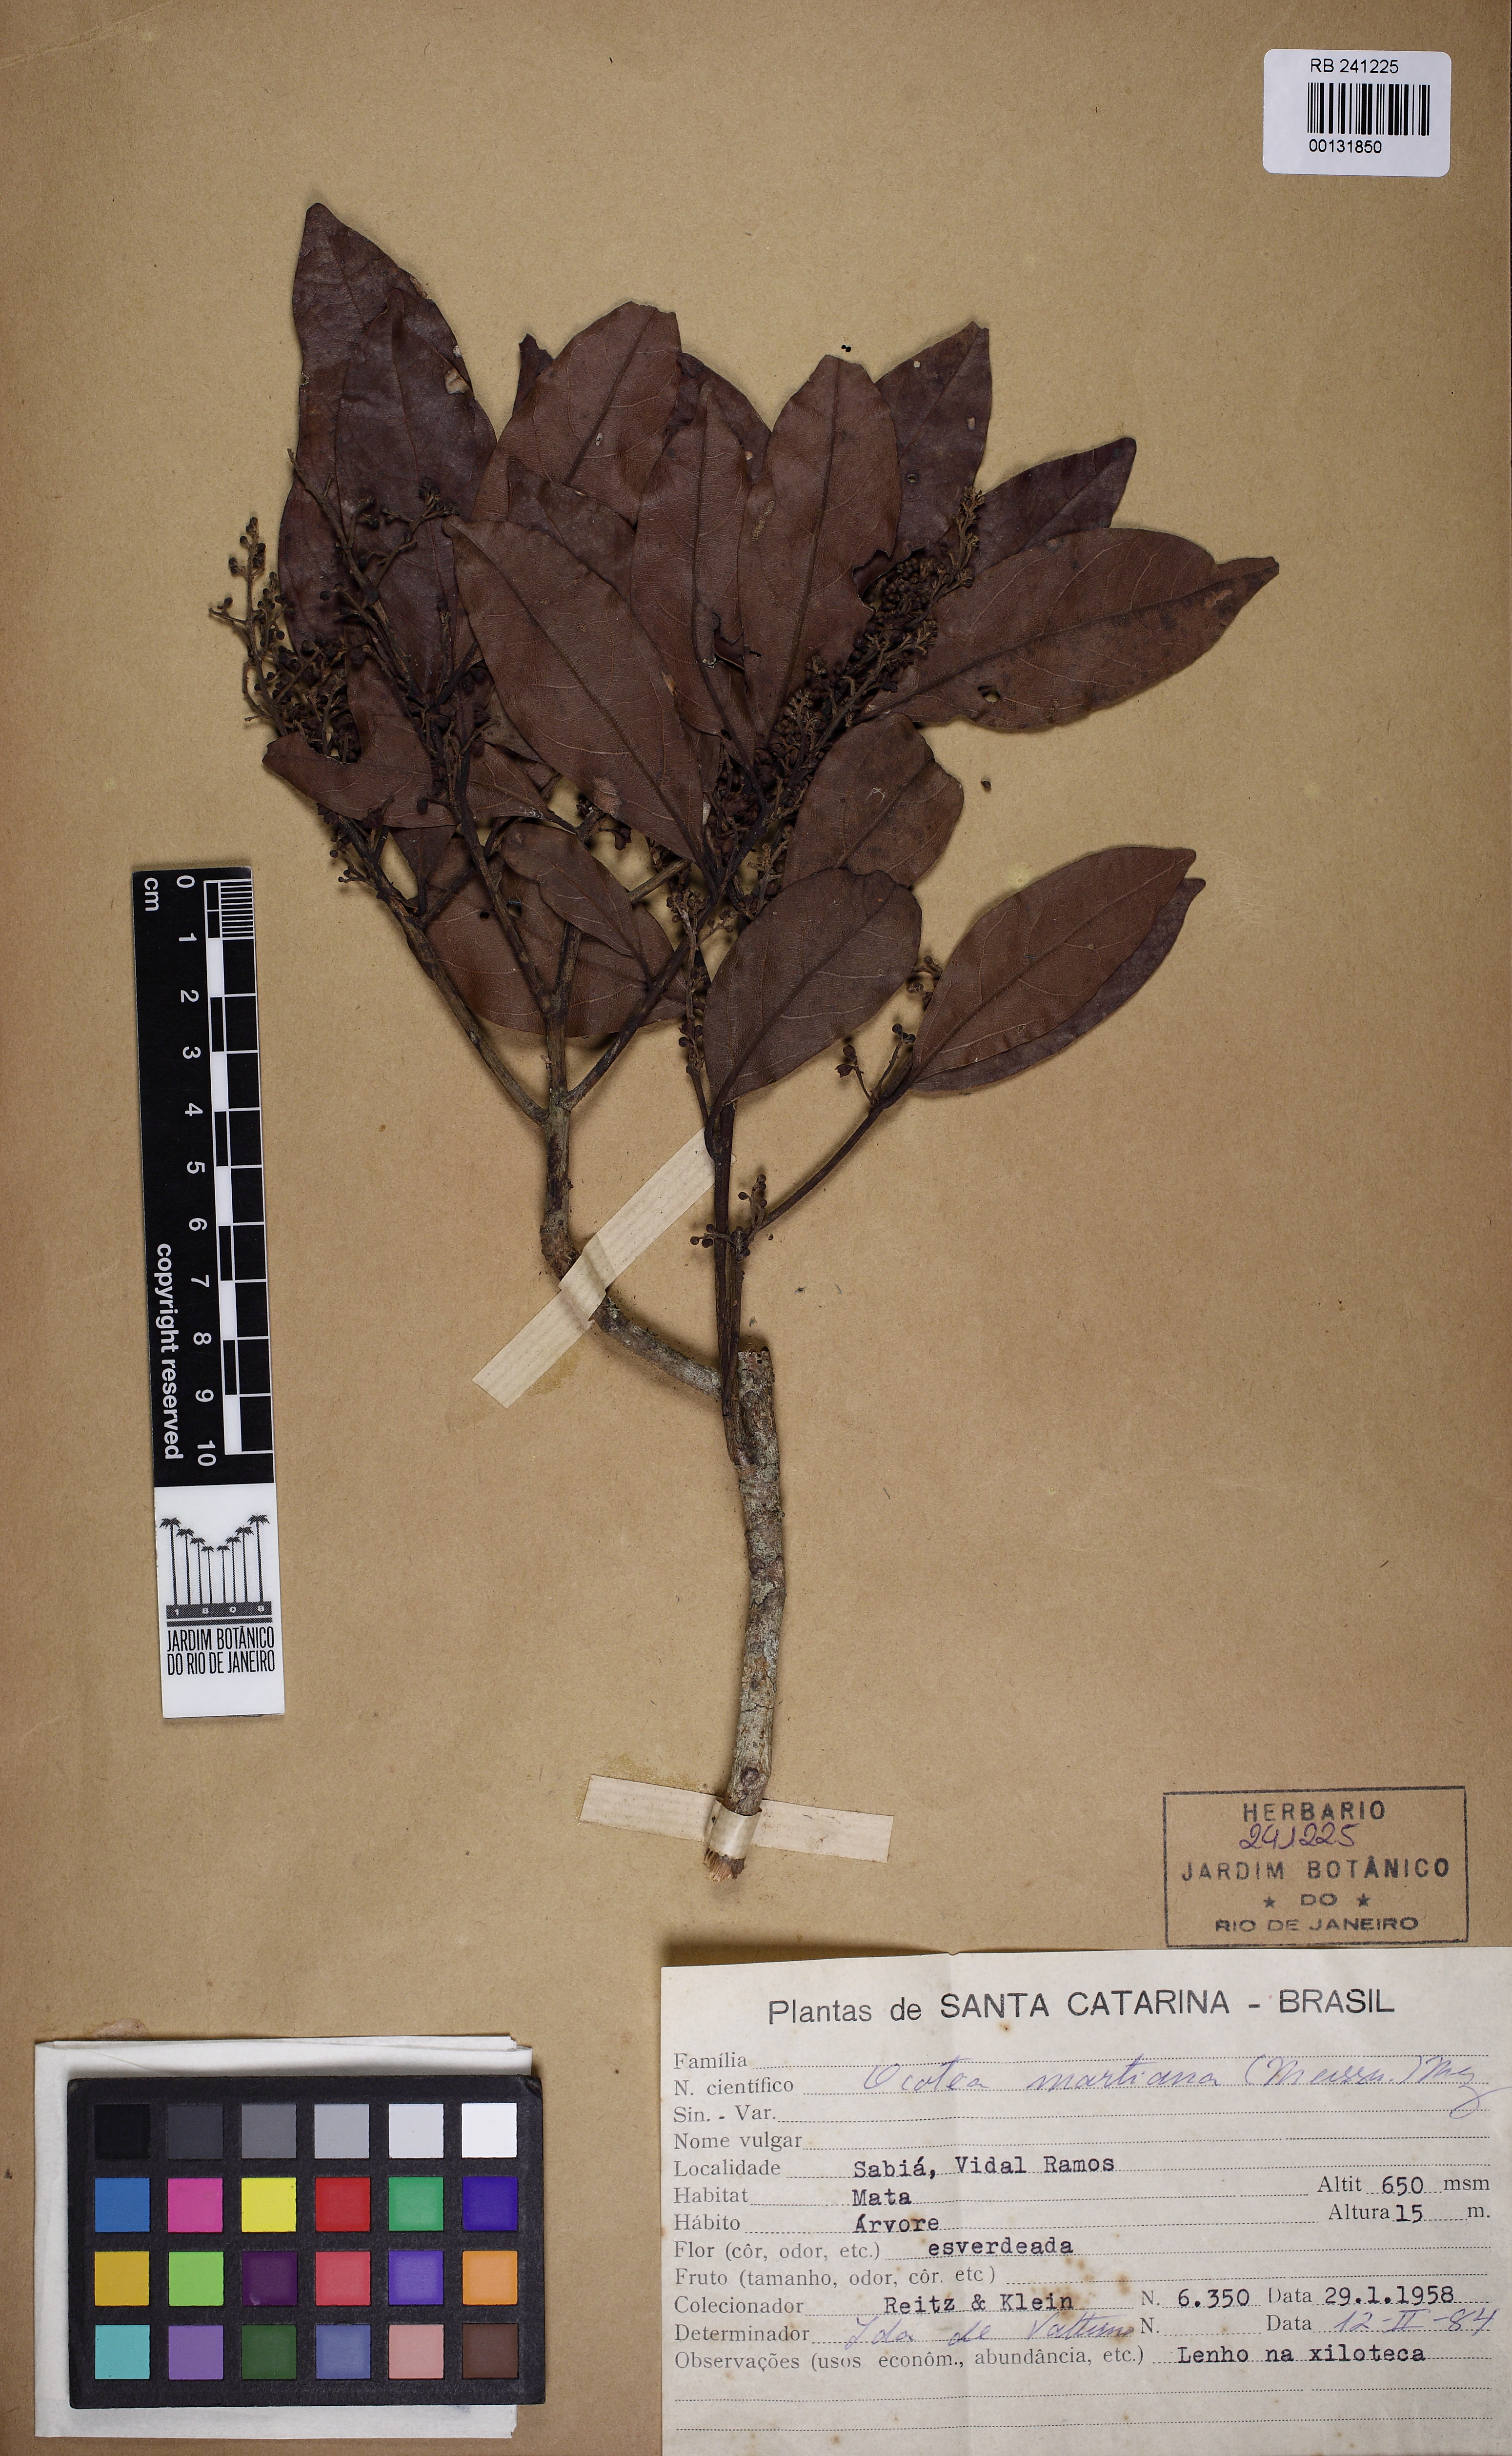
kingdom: Plantae
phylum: Tracheophyta
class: Magnoliopsida
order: Laurales
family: Lauraceae
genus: Ocotea
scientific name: Ocotea puberula
